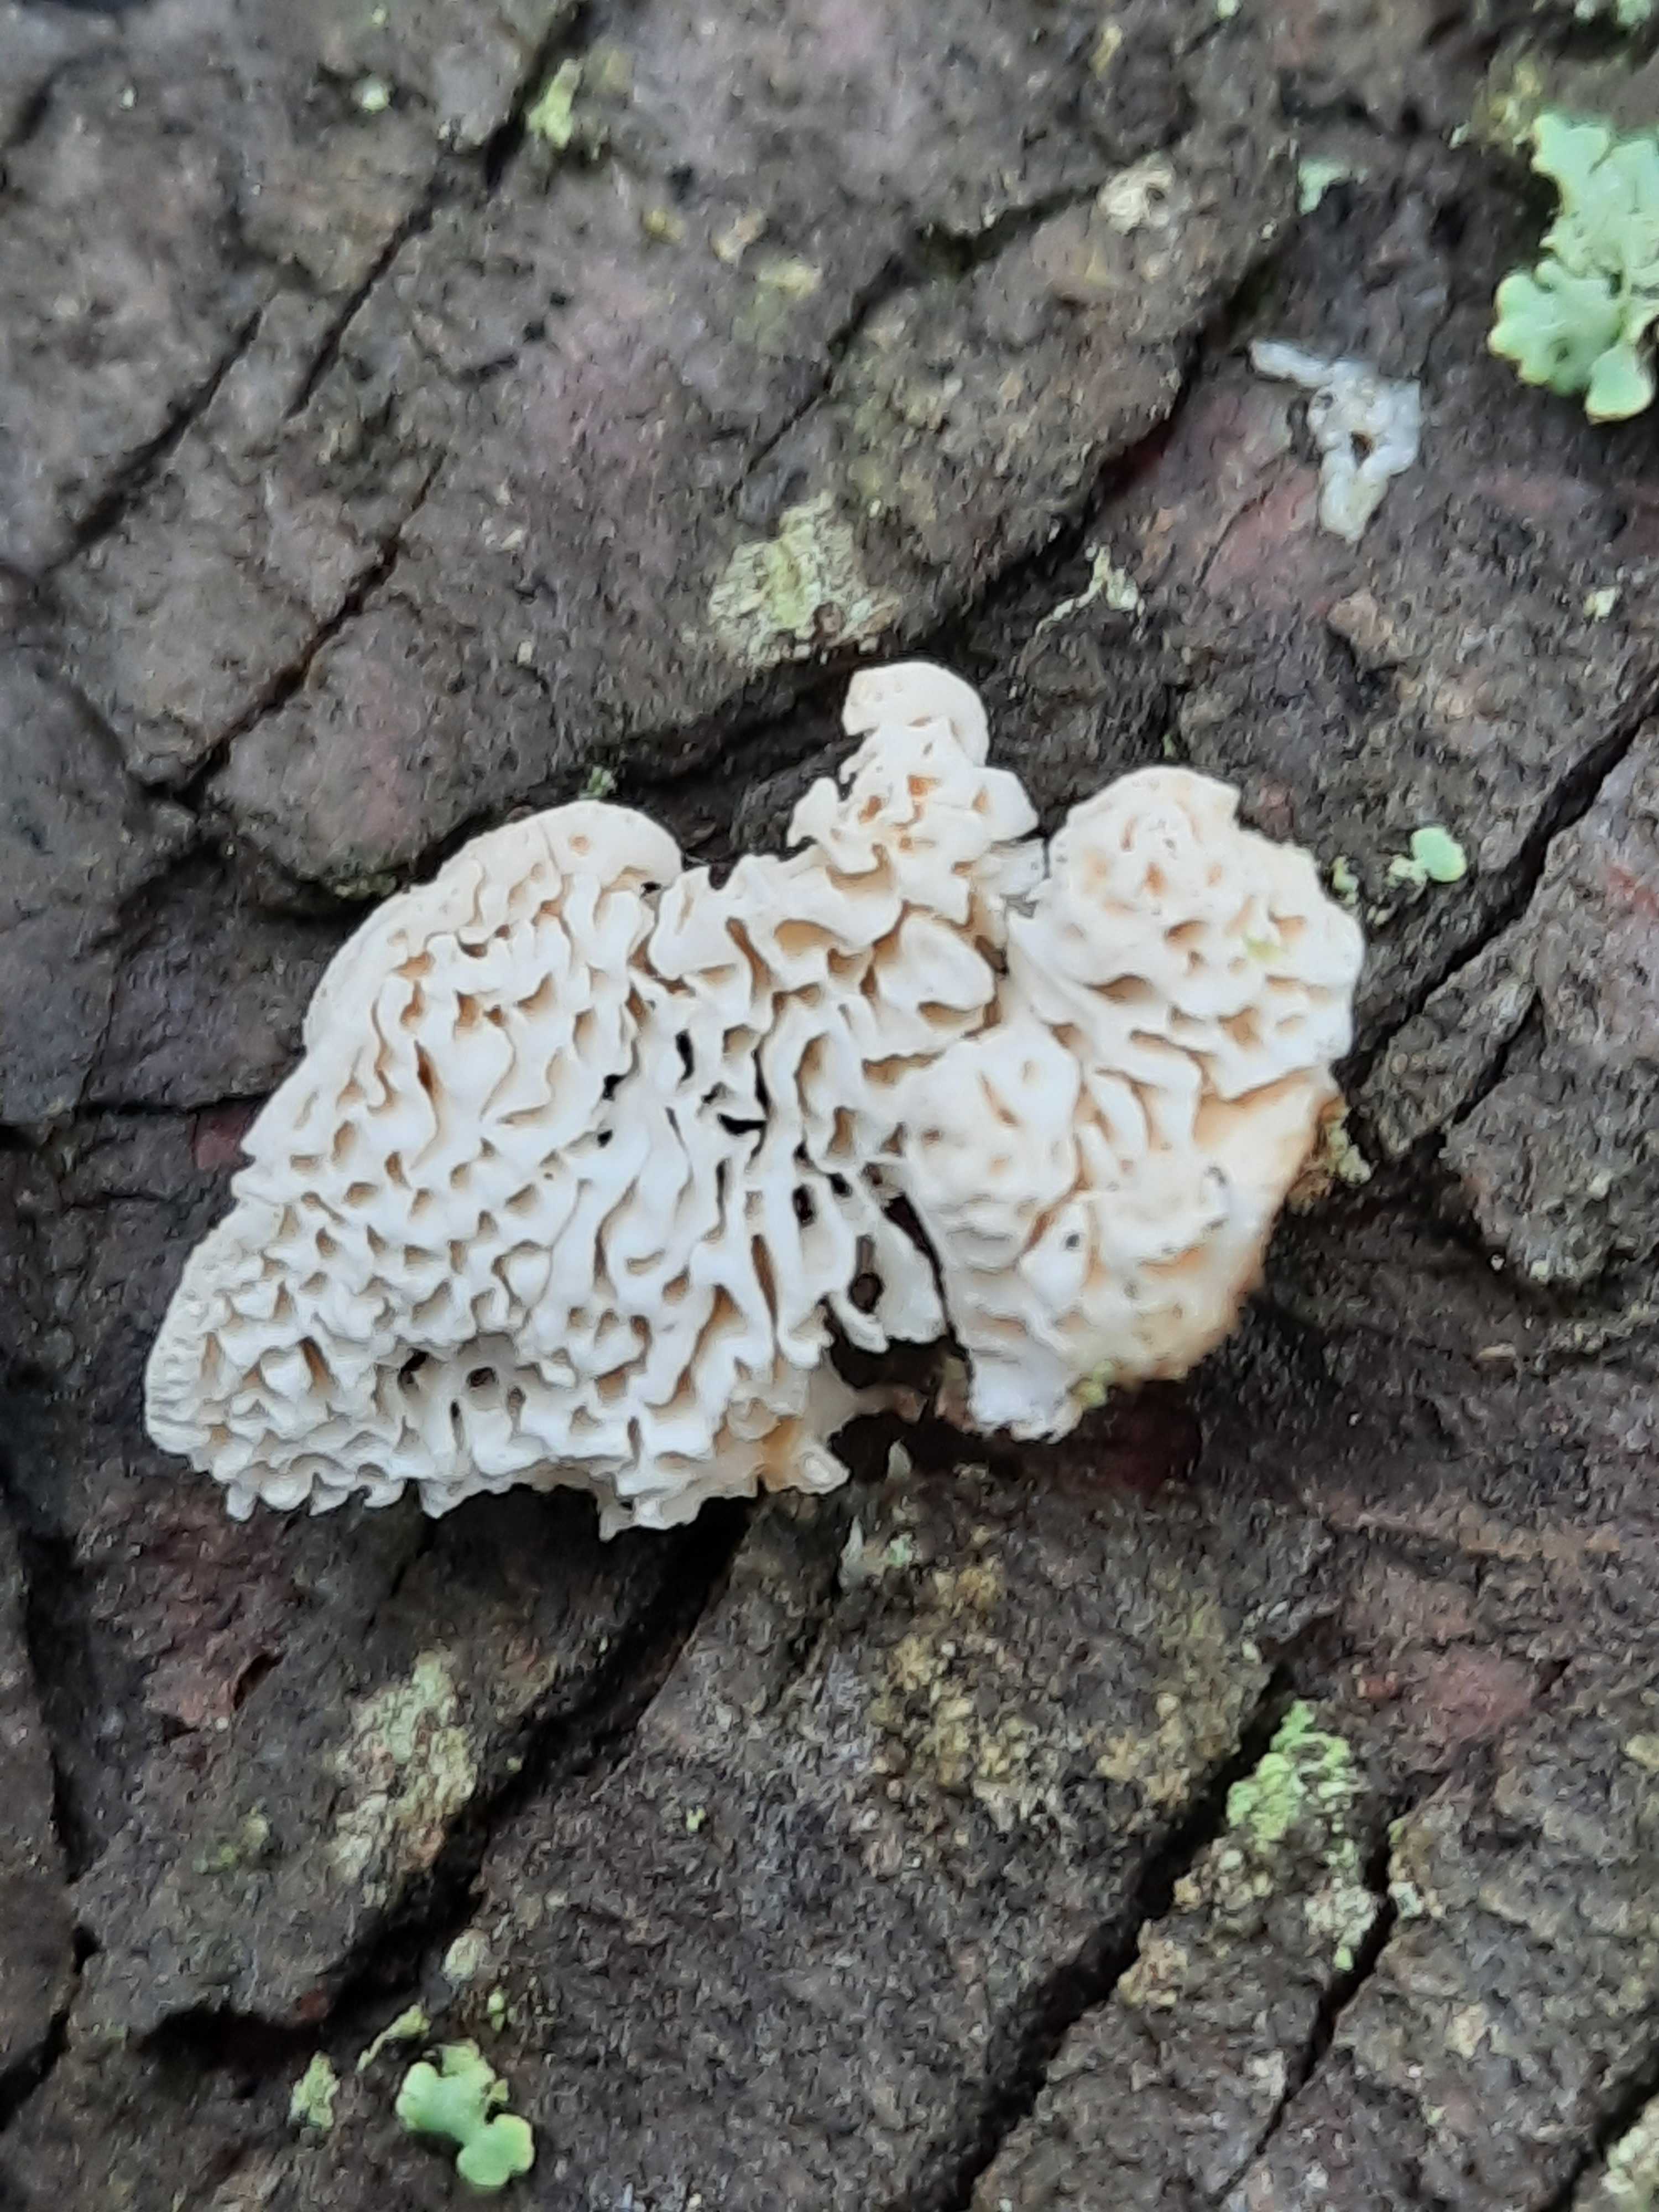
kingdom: Fungi
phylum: Basidiomycota
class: Agaricomycetes
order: Polyporales
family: Fomitopsidaceae
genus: Fomitopsis
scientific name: Fomitopsis
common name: fyrre-skiveporesvamp
